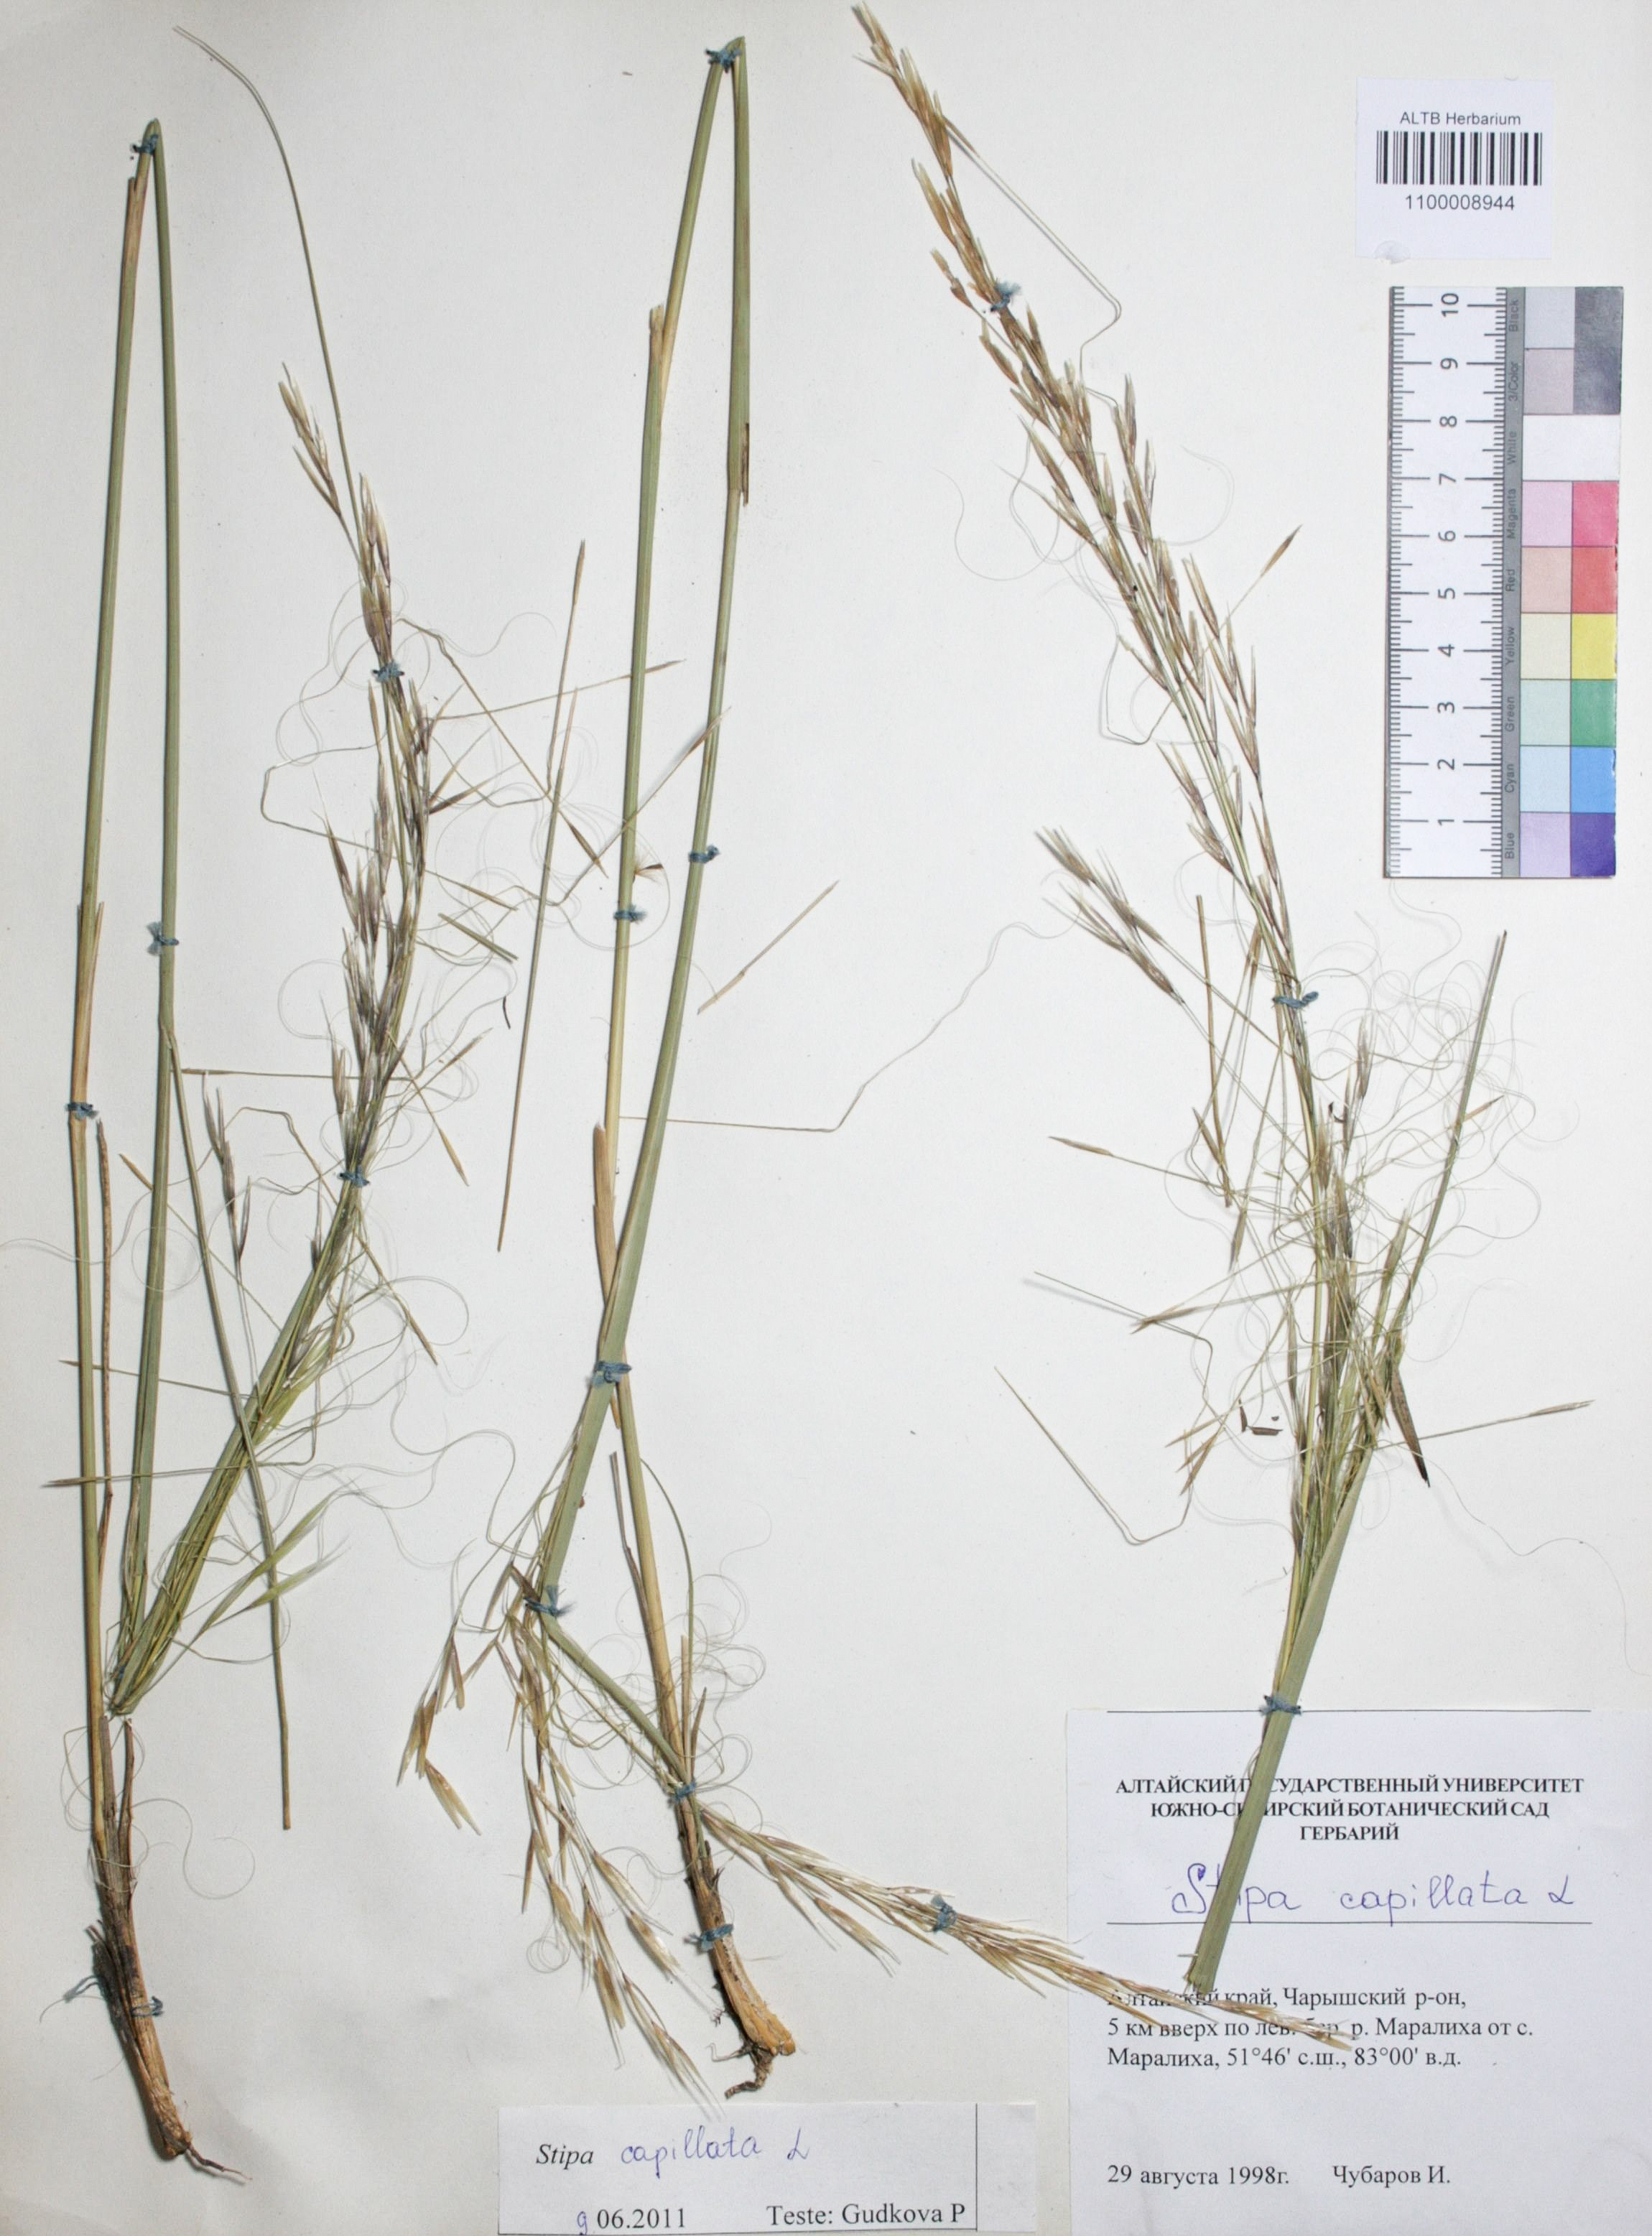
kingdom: Plantae
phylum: Tracheophyta
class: Liliopsida
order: Poales
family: Poaceae
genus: Stipa
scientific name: Stipa capillata
